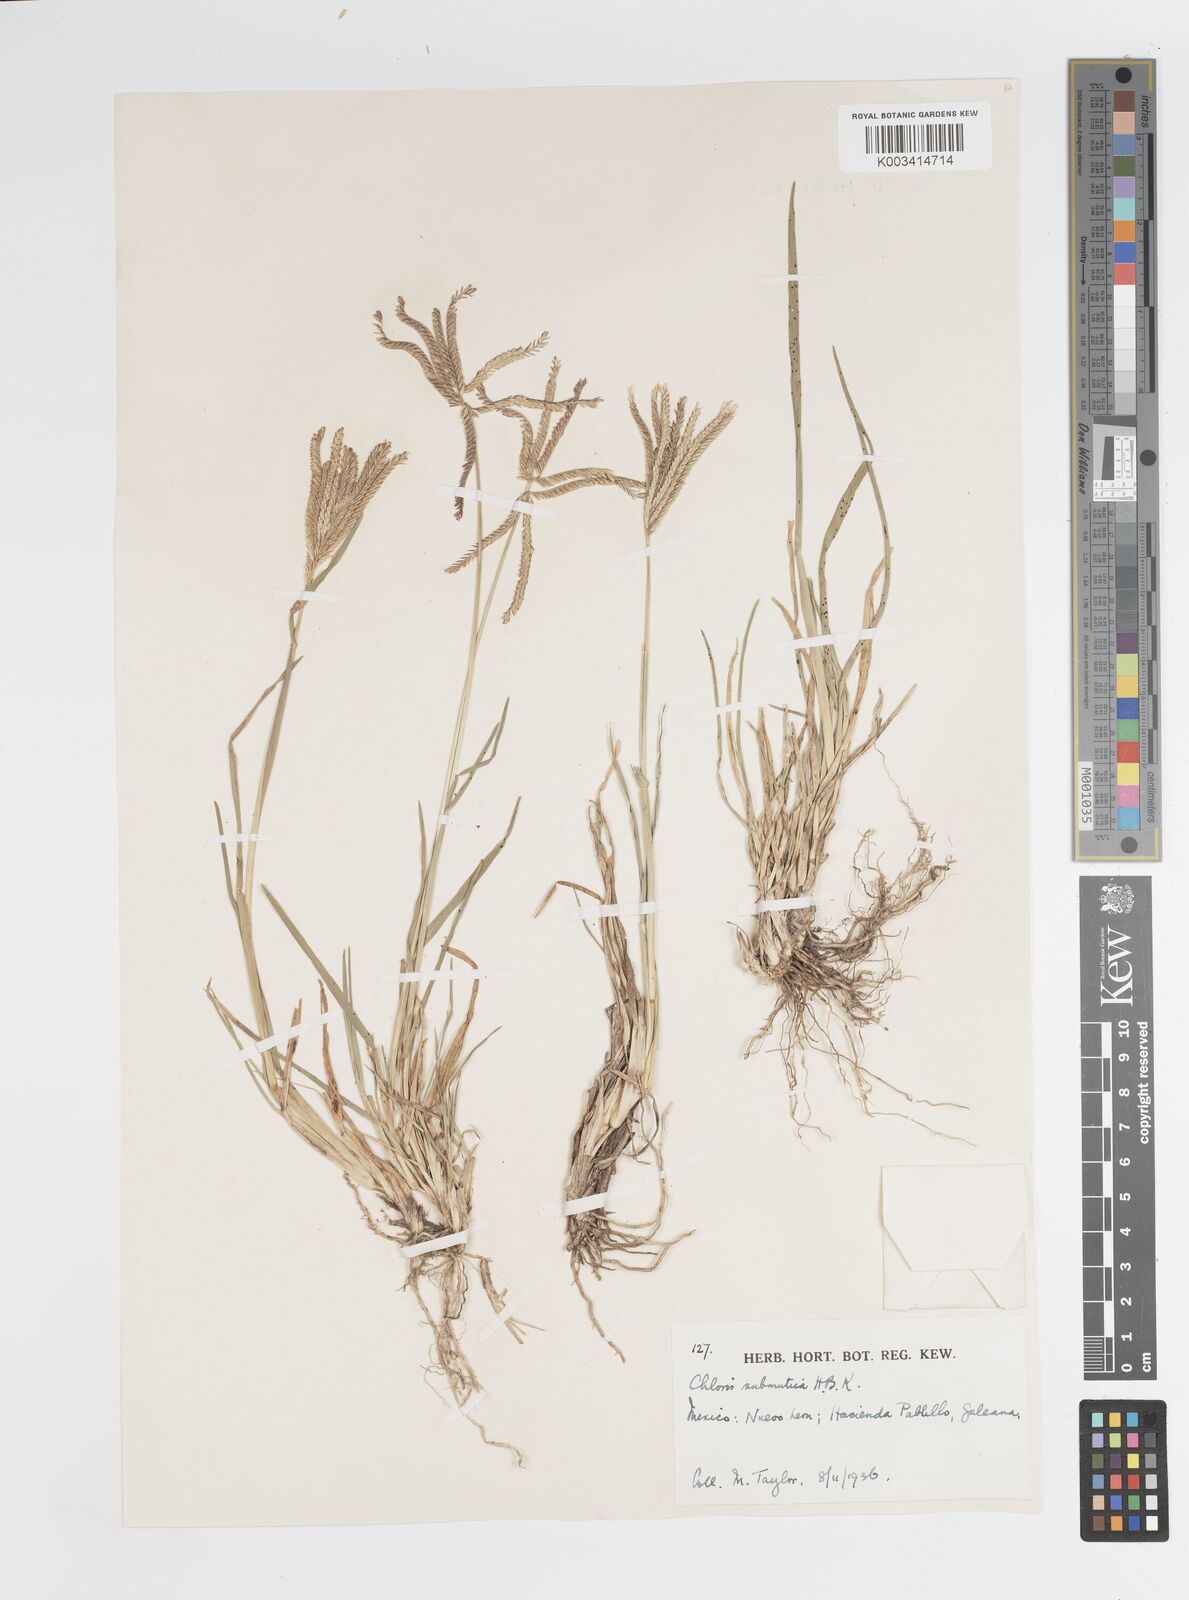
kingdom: Plantae
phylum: Tracheophyta
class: Liliopsida
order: Poales
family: Poaceae
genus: Chloris
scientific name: Chloris submutica
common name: Mexican windmill grass
